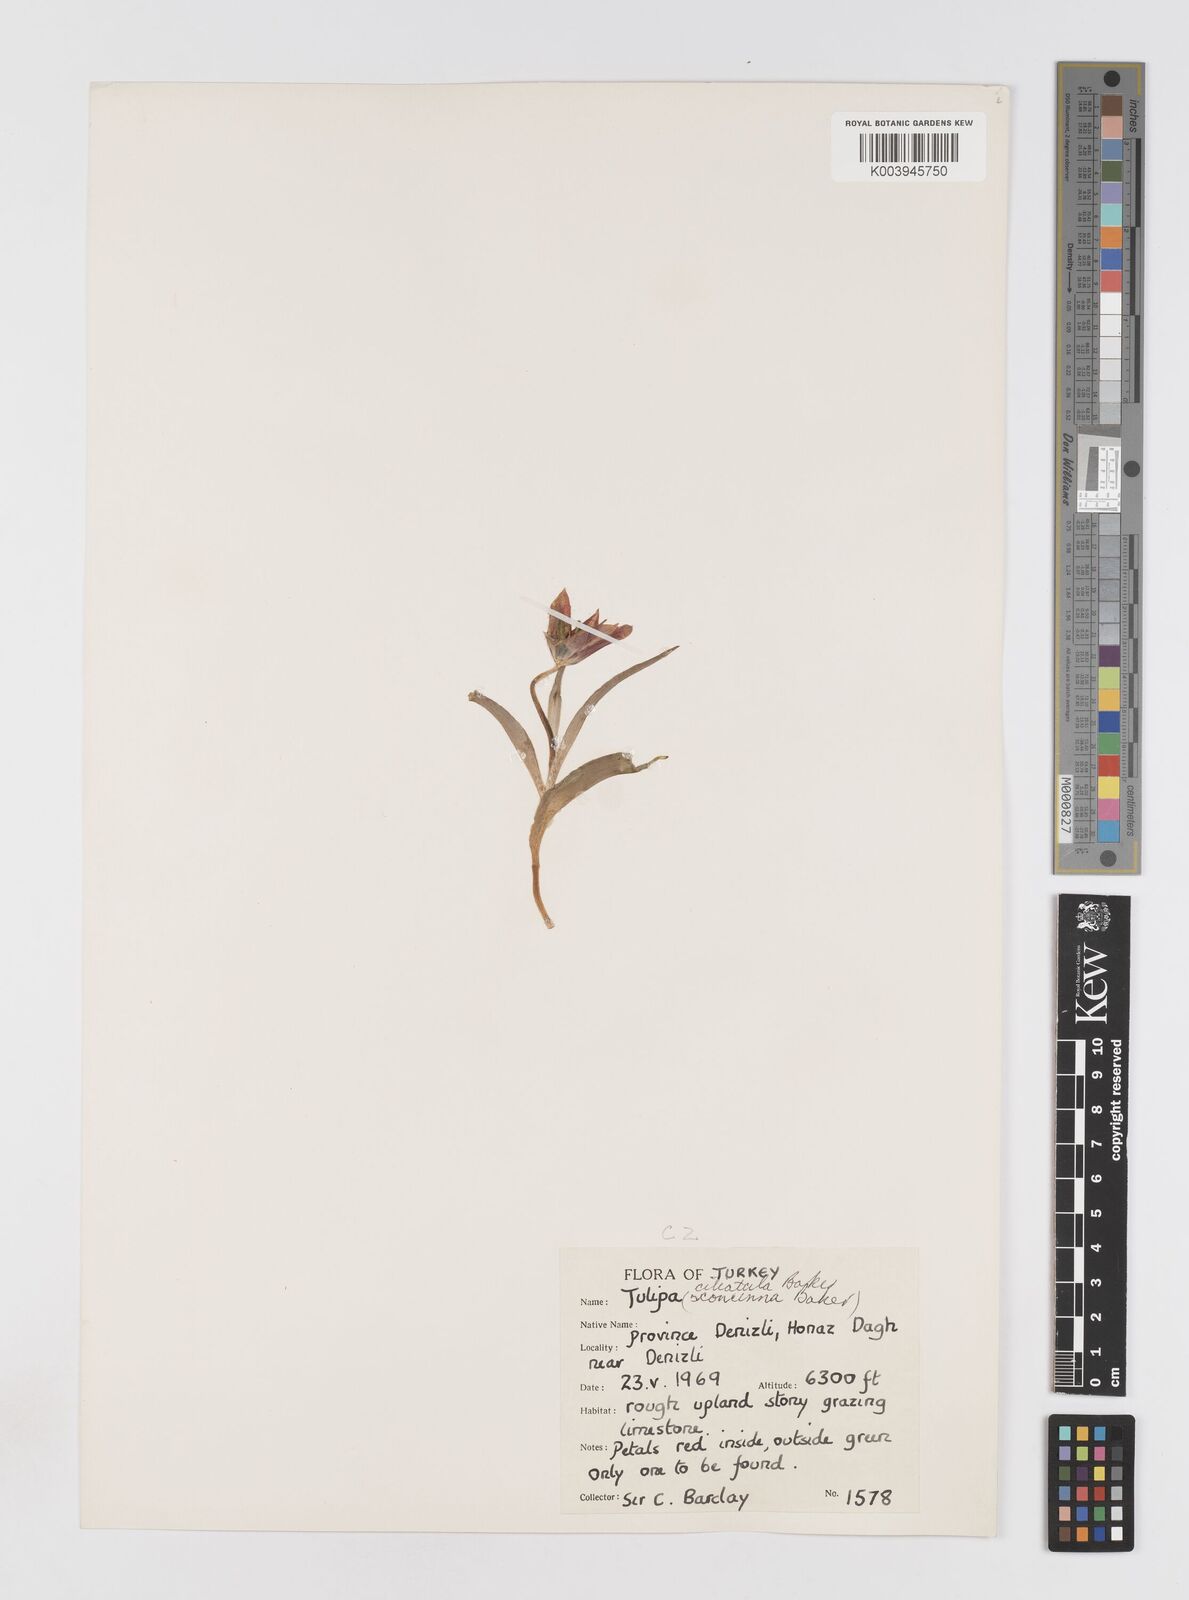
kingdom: Plantae
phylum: Tracheophyta
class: Liliopsida
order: Liliales
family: Liliaceae
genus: Tulipa
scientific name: Tulipa armena
